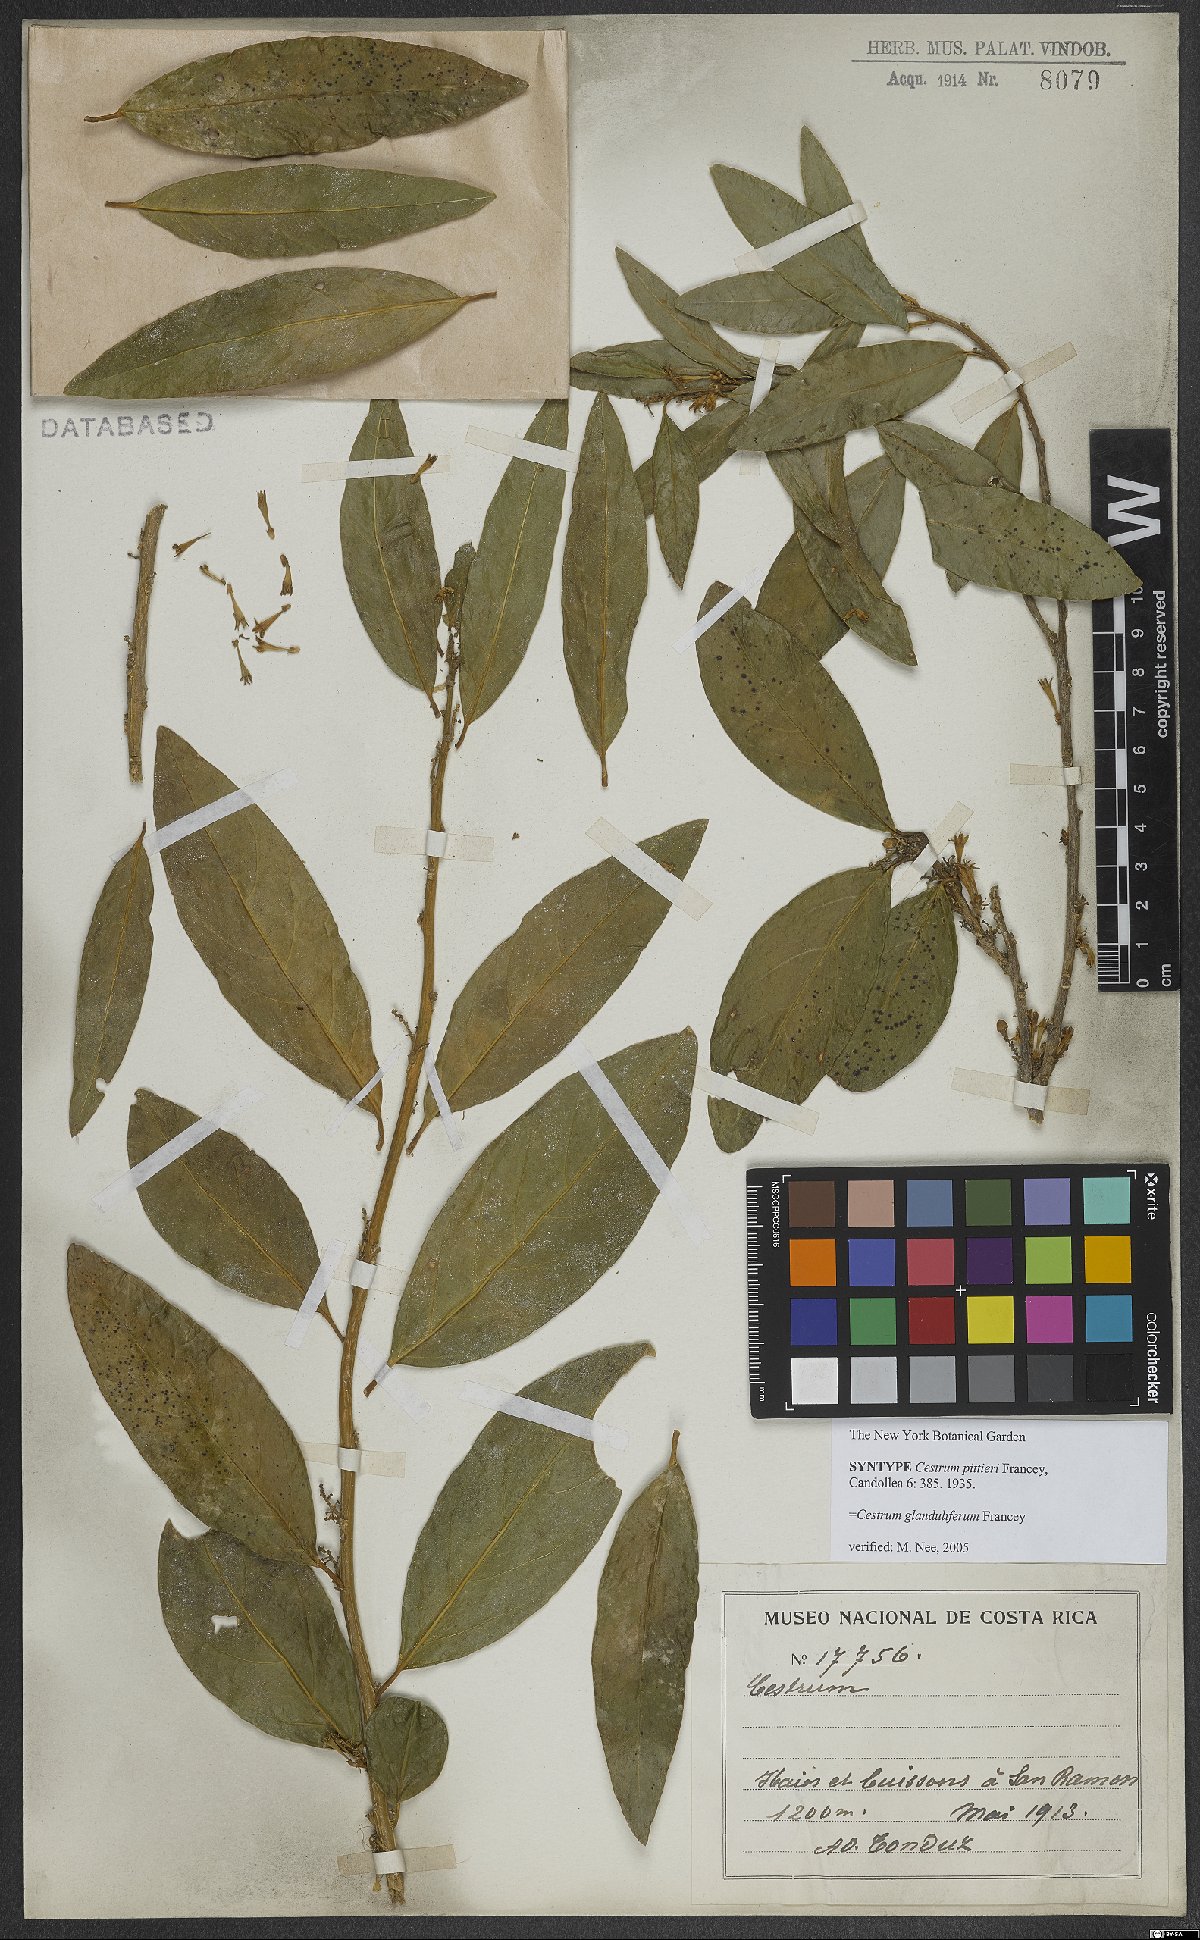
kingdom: Plantae
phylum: Tracheophyta
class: Magnoliopsida
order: Solanales
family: Solanaceae
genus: Cestrum
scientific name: Cestrum glanduliferum
